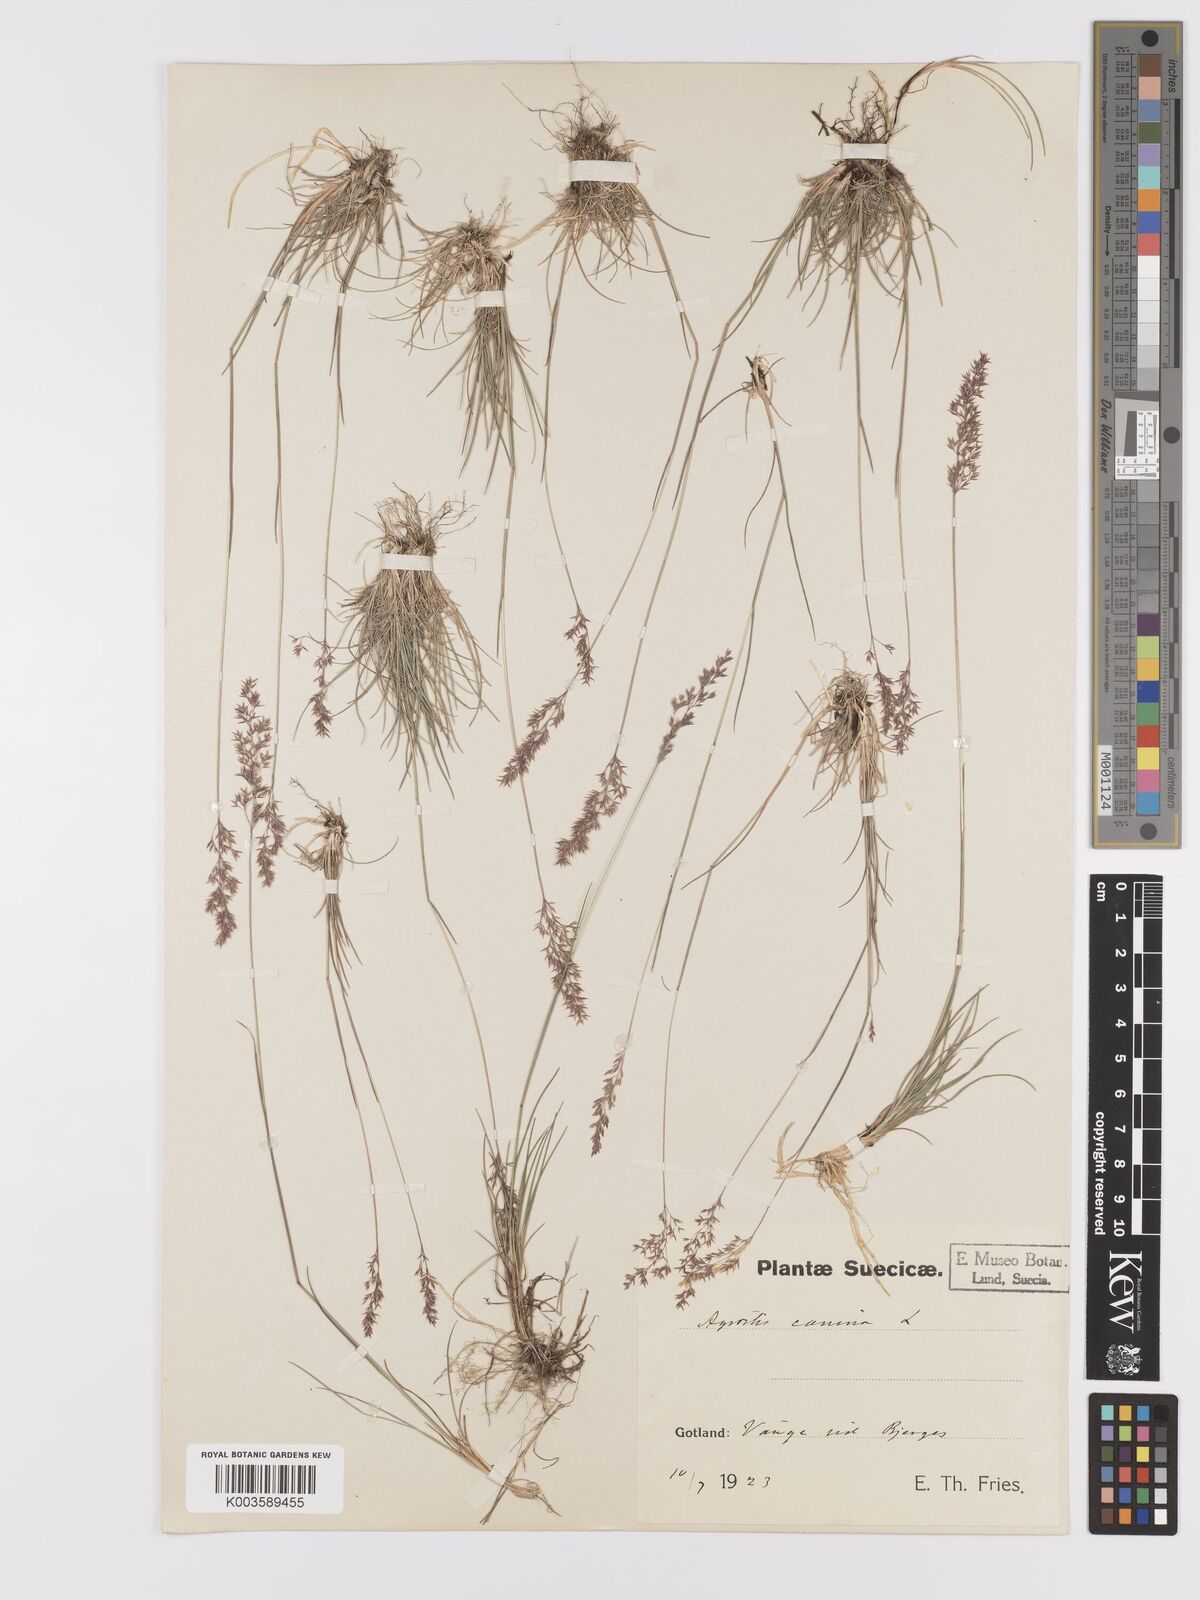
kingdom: Plantae
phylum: Tracheophyta
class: Liliopsida
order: Poales
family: Poaceae
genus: Agrostis
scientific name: Agrostis canina
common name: Velvet bent
